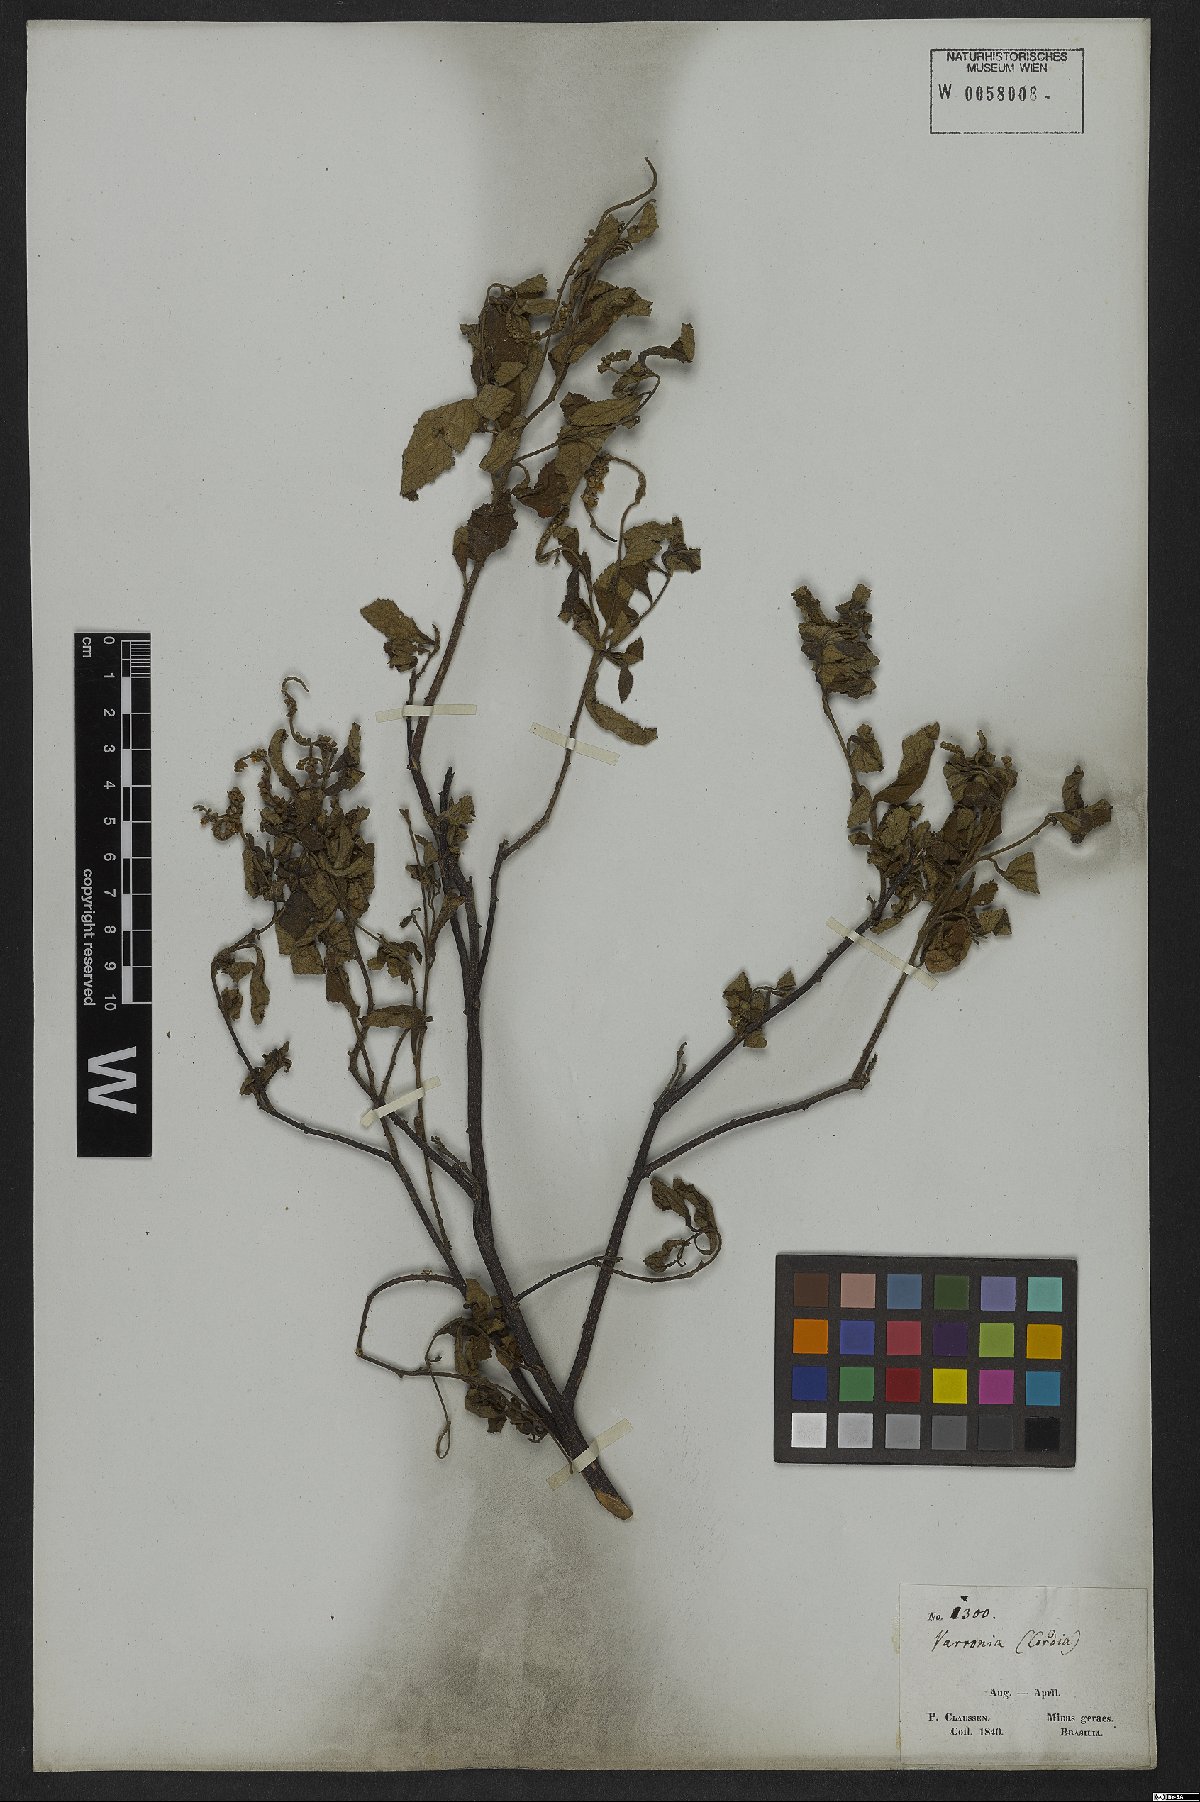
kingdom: Plantae
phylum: Tracheophyta
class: Magnoliopsida
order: Boraginales
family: Cordiaceae
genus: Varronia
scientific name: Varronia curassavica
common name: Black sage
